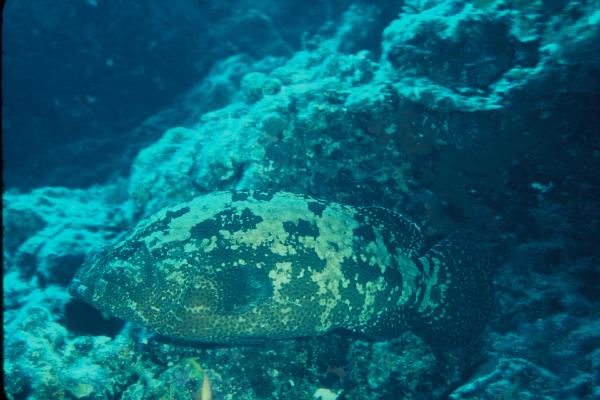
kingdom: Animalia
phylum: Chordata
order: Perciformes
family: Serranidae
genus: Epinephelus
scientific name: Epinephelus fuscoguttatus
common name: Brown-marbled grouper
